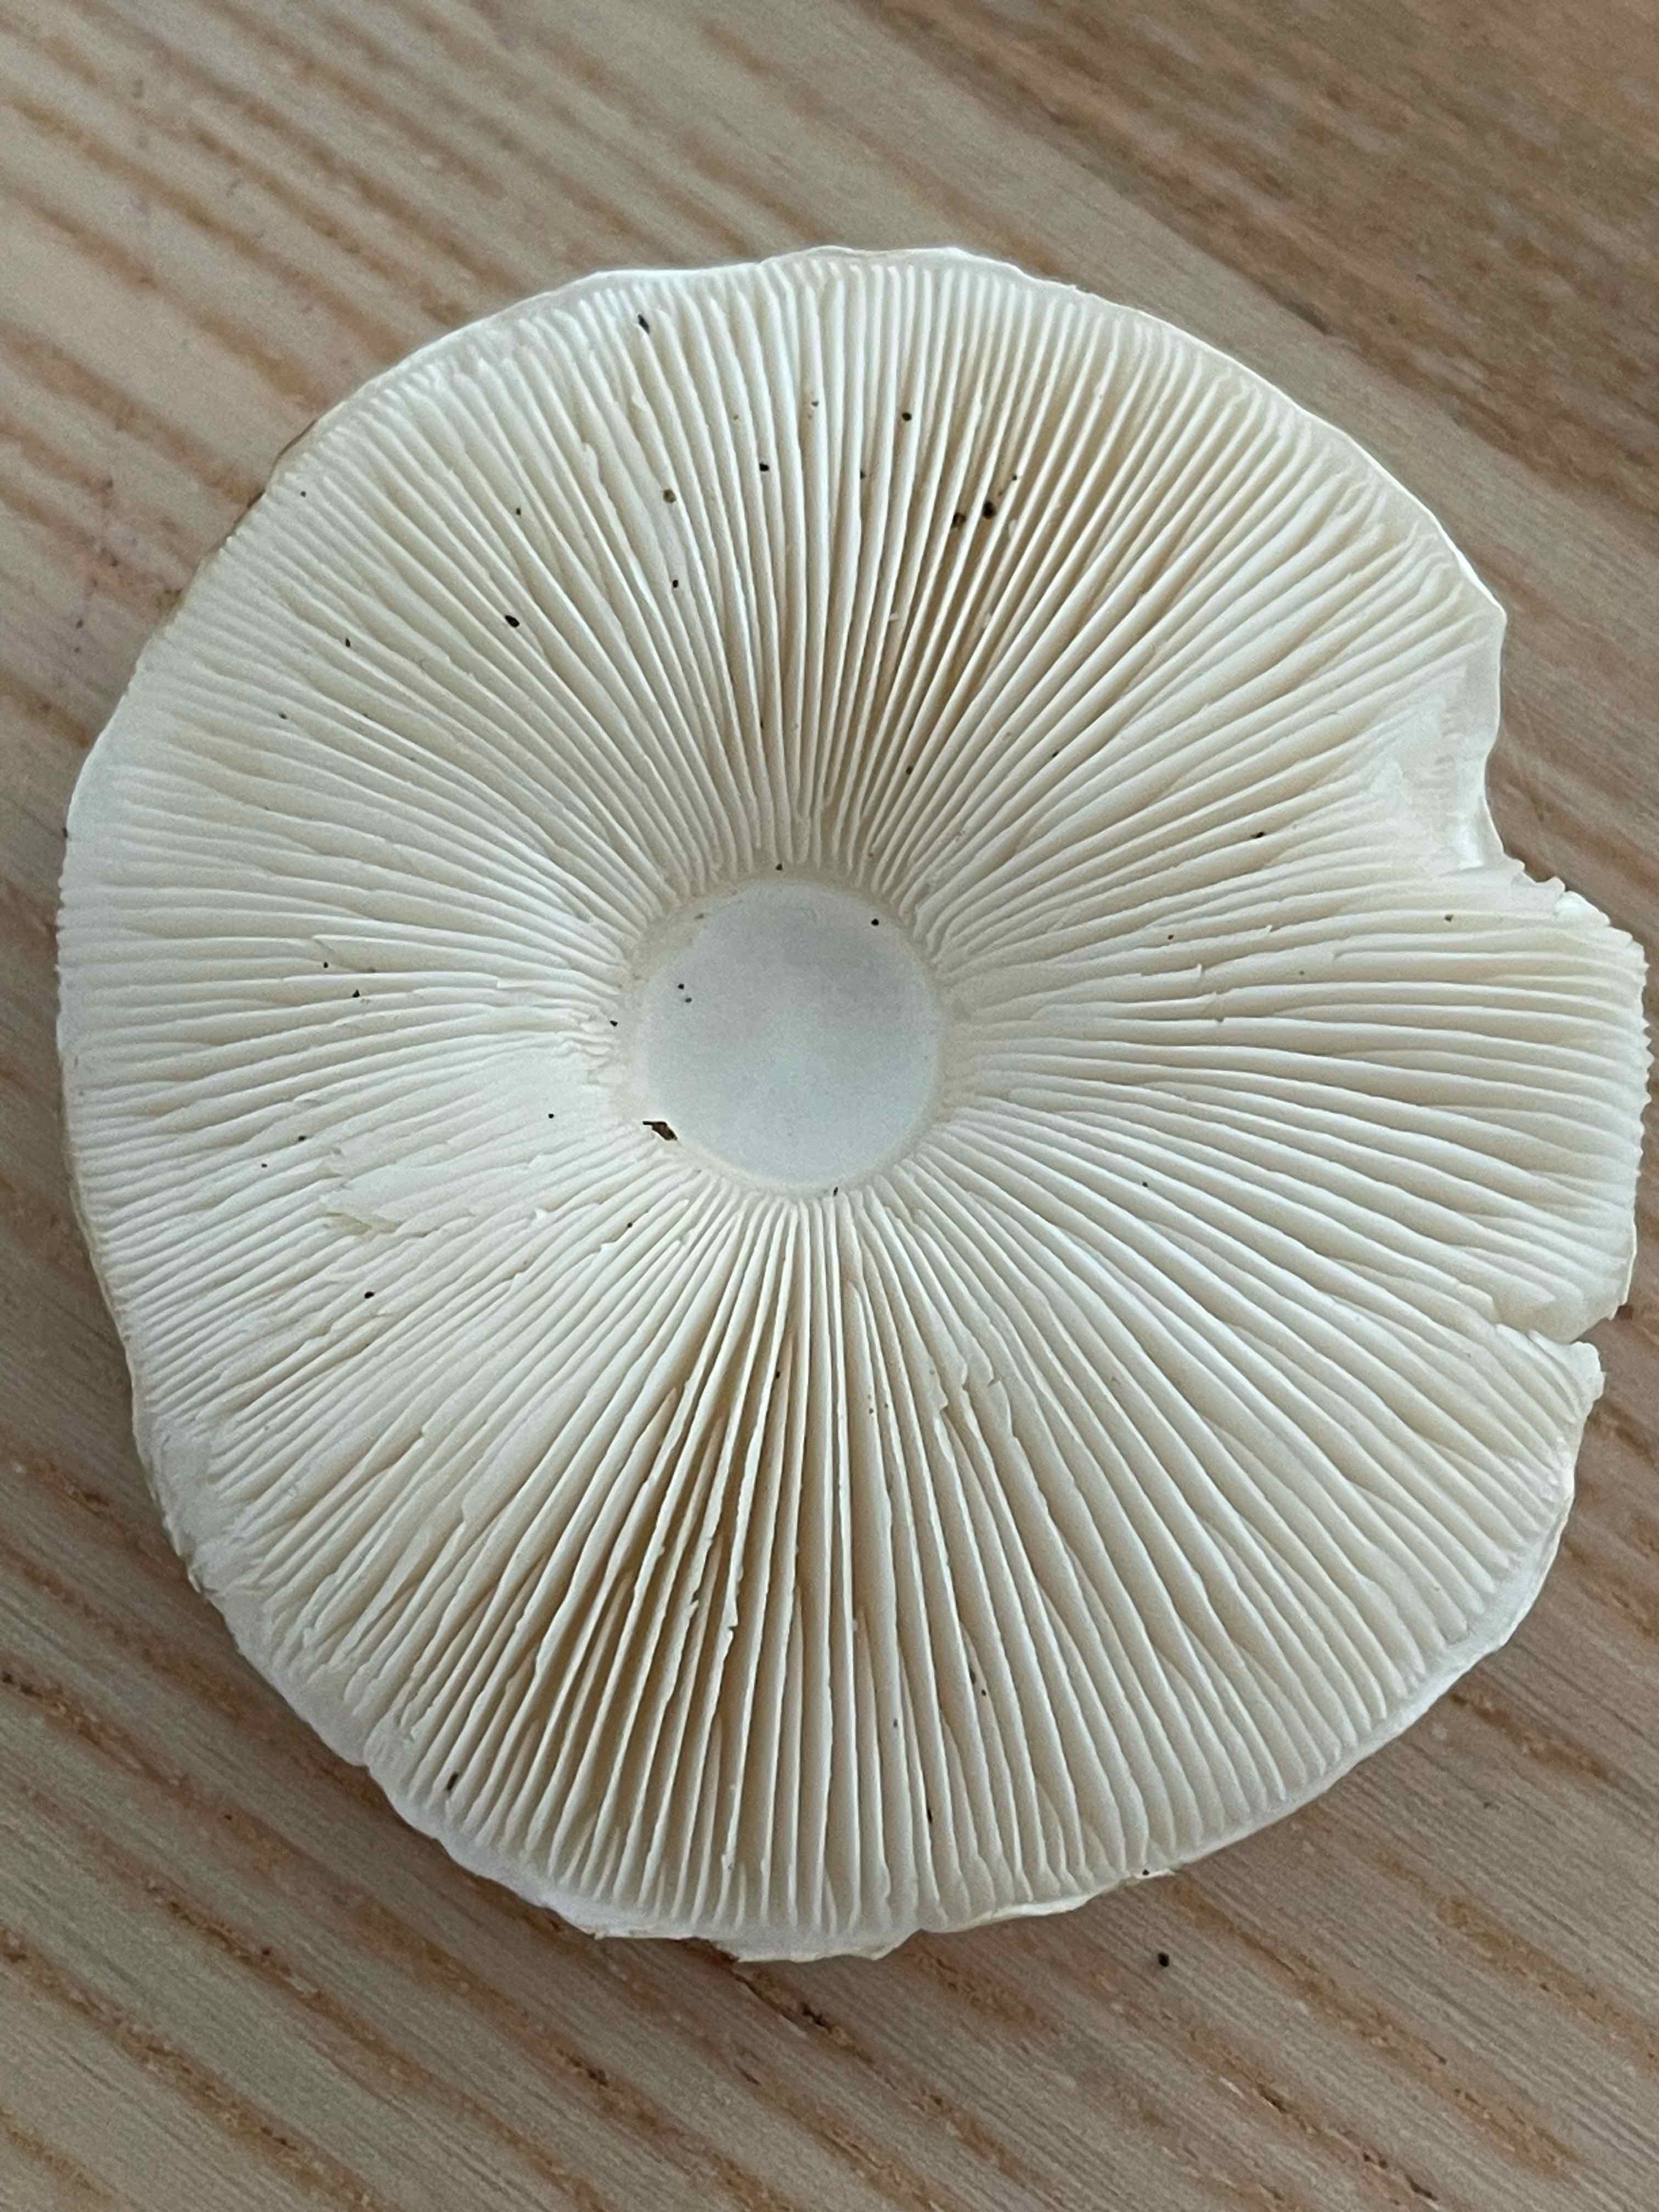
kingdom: Fungi
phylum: Basidiomycota
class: Agaricomycetes
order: Agaricales
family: Agaricaceae
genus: Leucoagaricus
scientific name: Leucoagaricus leucothites
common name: rosabladet silkehat
